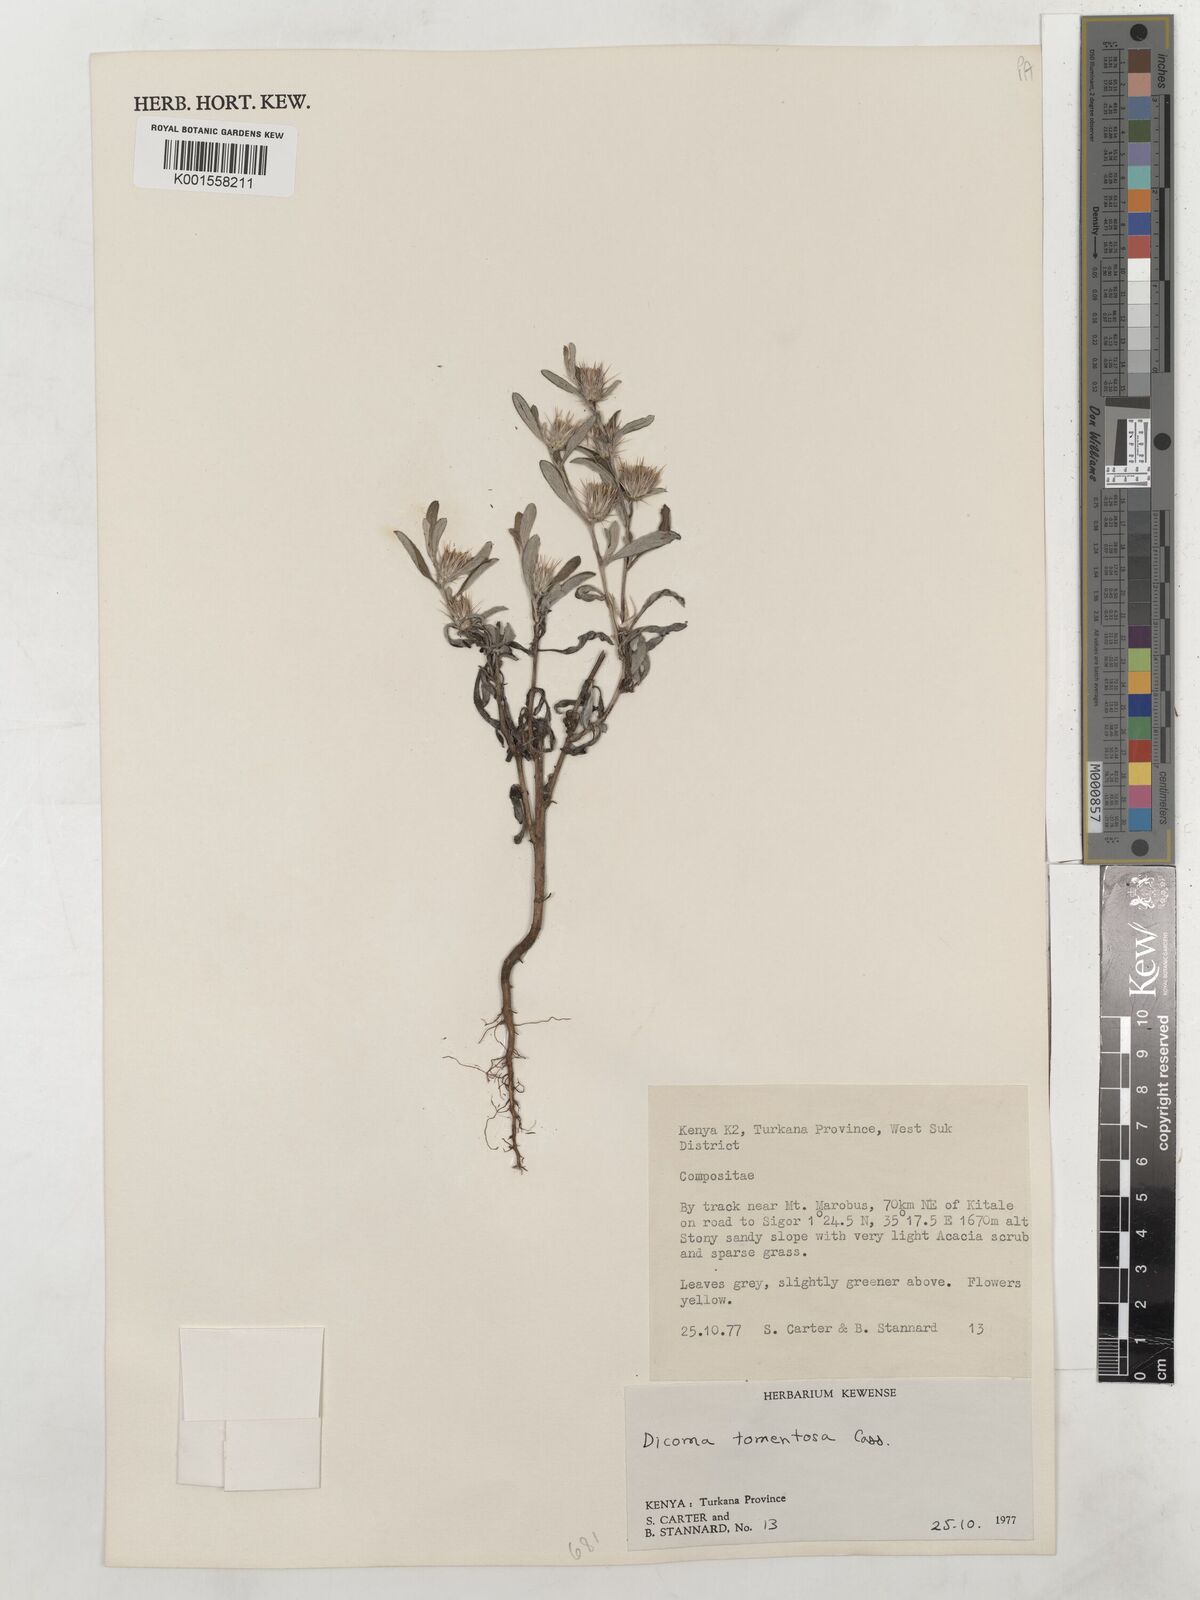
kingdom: Plantae
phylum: Tracheophyta
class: Magnoliopsida
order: Asterales
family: Asteraceae
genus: Dicoma
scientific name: Dicoma tomentosa
